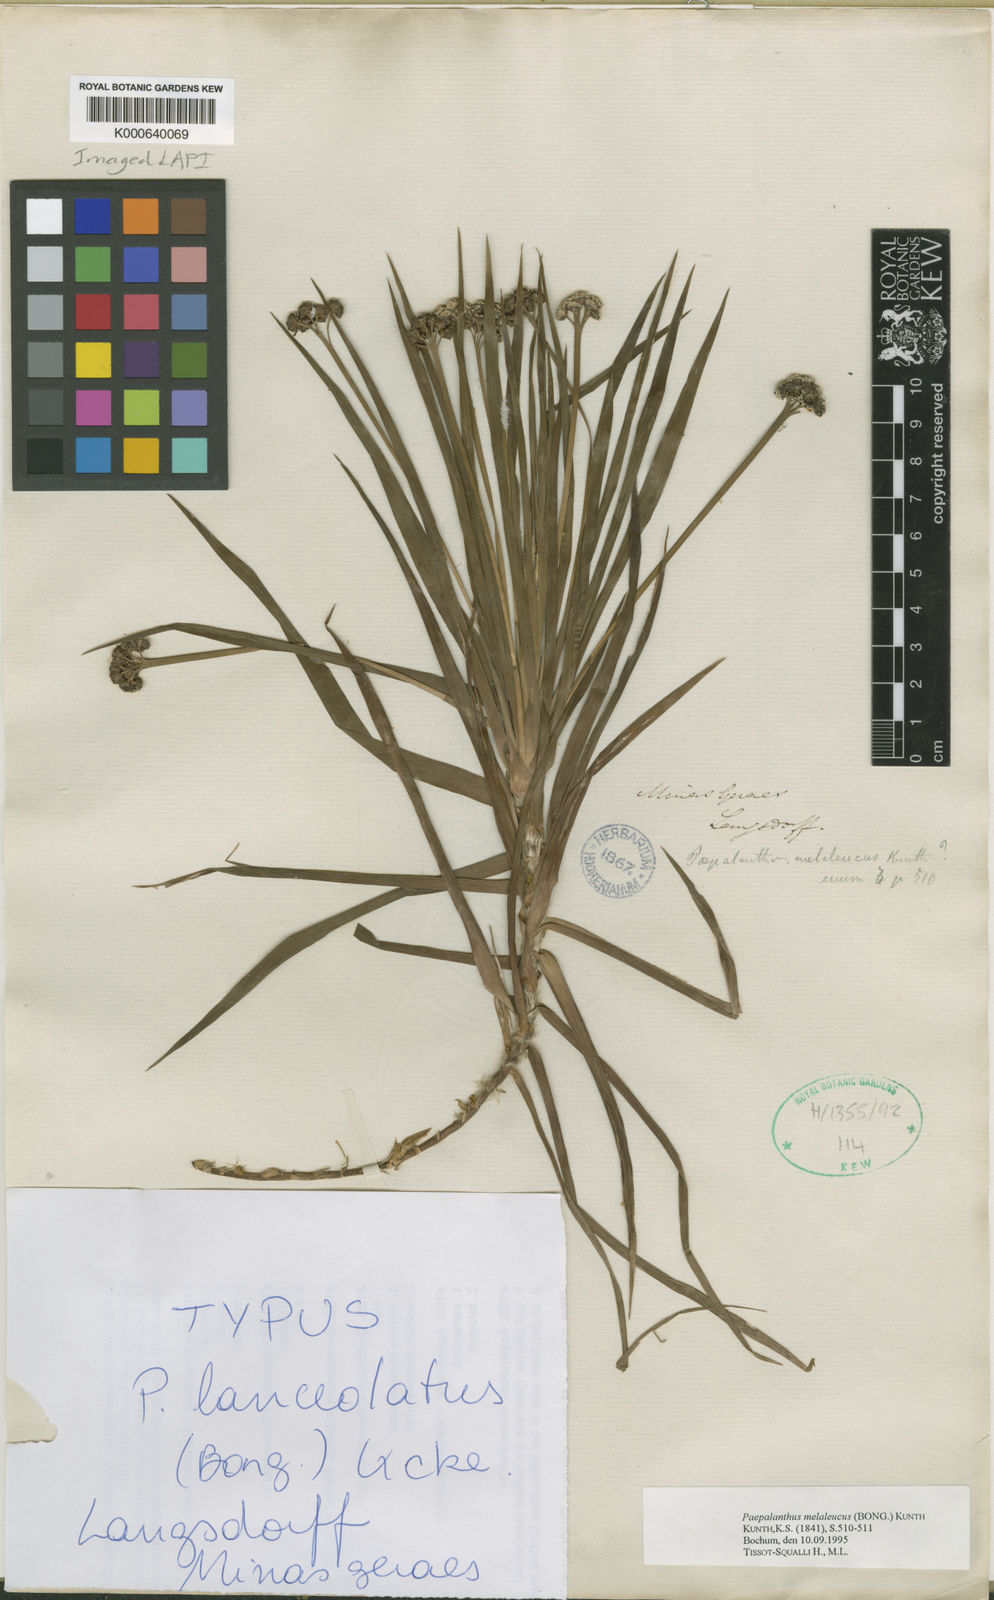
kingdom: Plantae
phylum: Tracheophyta
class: Liliopsida
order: Poales
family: Eriocaulaceae
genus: Paepalanthus
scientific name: Paepalanthus melaleucus
